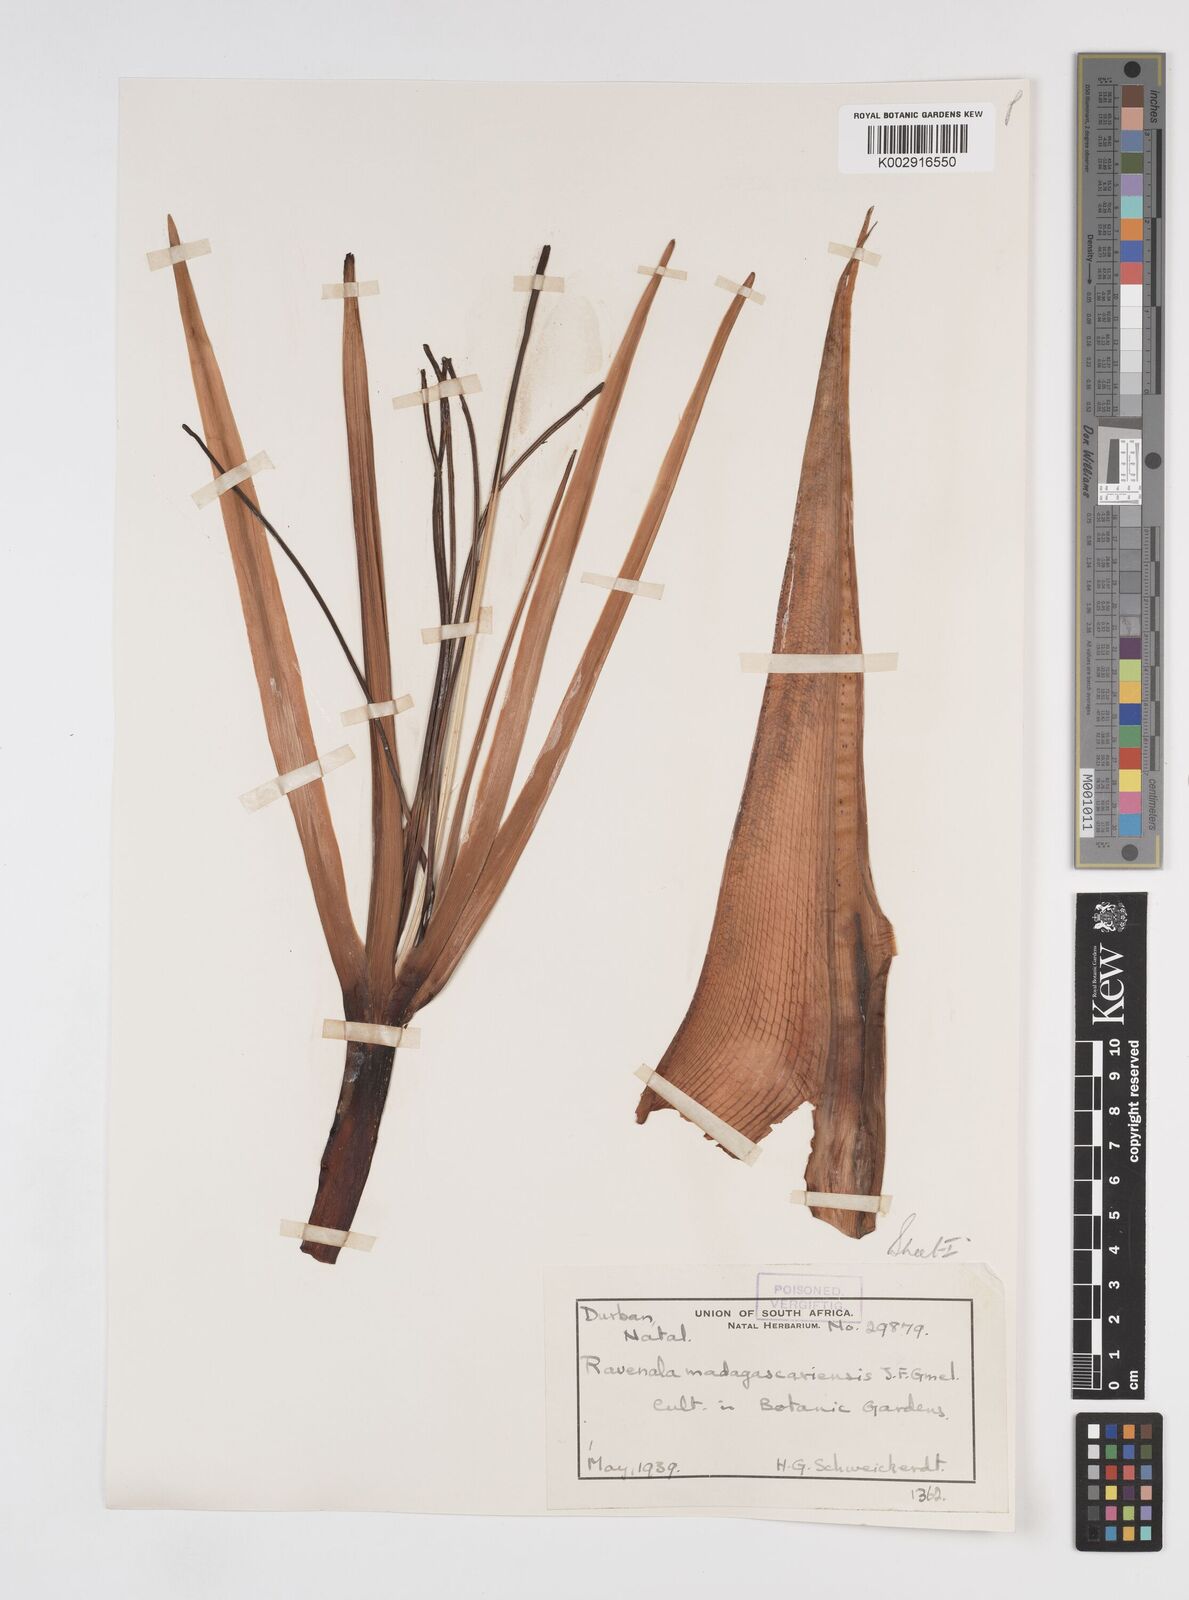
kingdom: Plantae
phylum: Tracheophyta
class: Liliopsida
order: Zingiberales
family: Strelitziaceae
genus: Ravenala
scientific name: Ravenala madagascariensis
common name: Traveler's-palm
